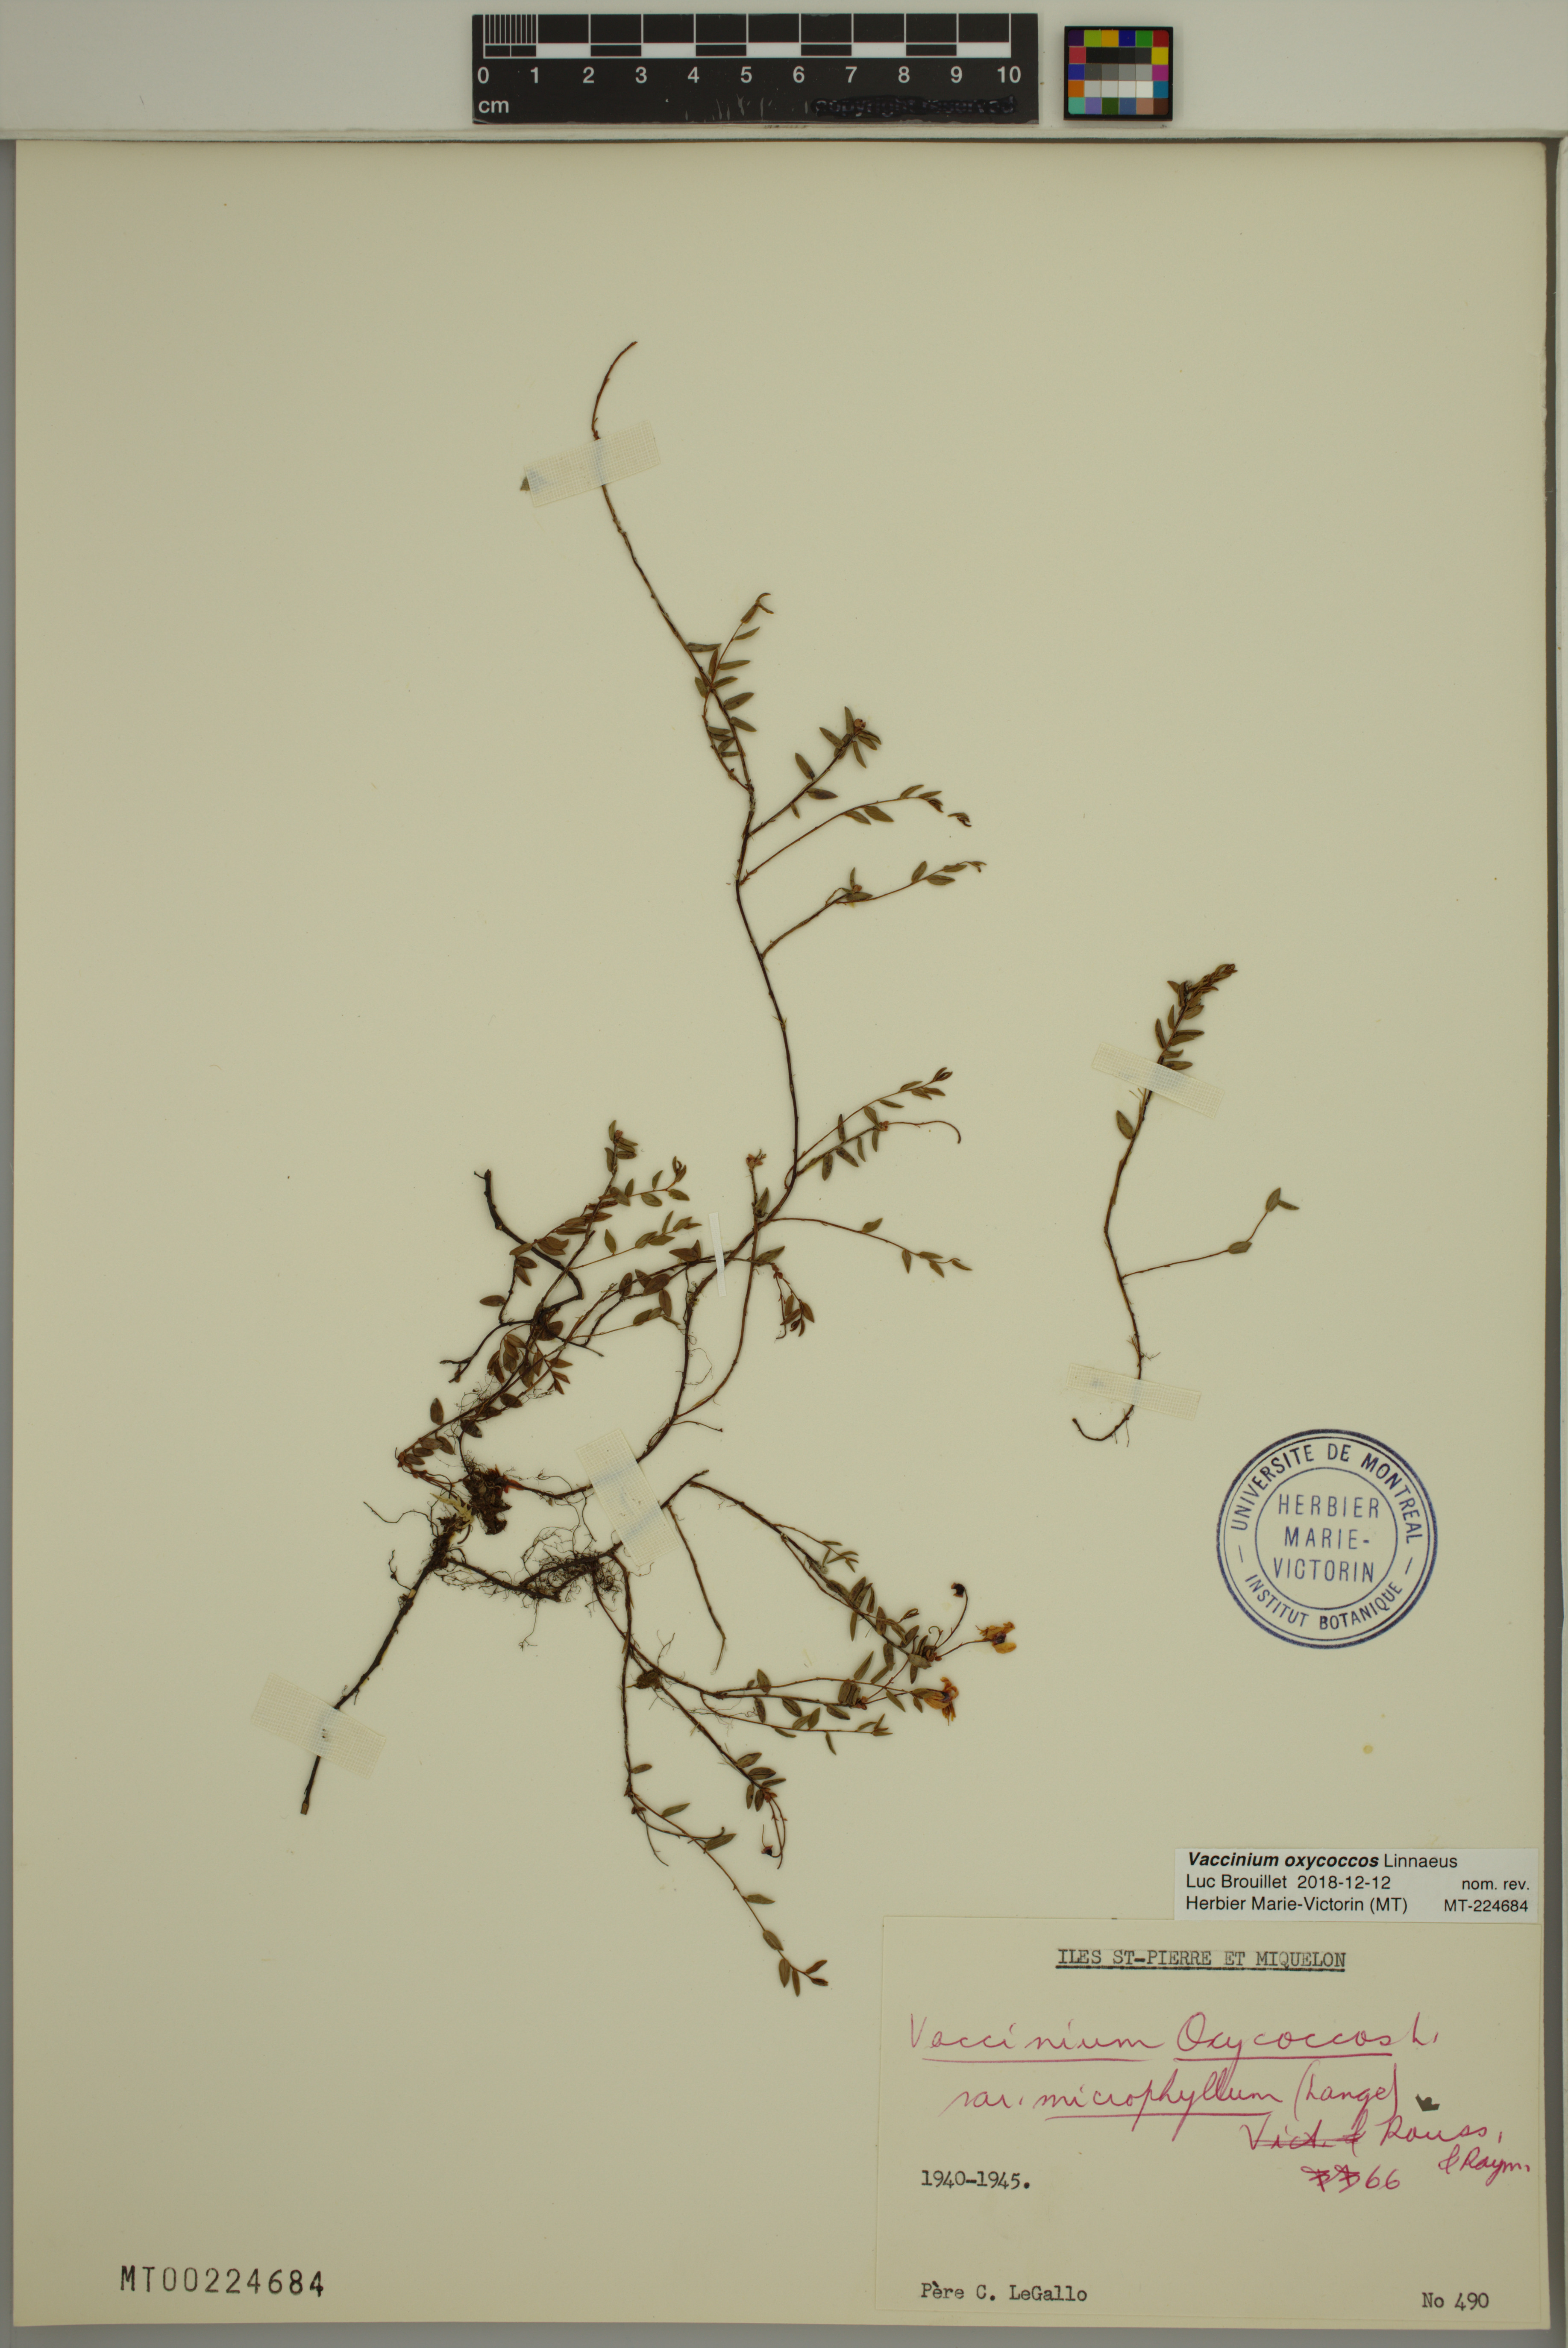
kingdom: Plantae
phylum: Tracheophyta
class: Magnoliopsida
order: Ericales
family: Ericaceae
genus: Vaccinium
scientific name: Vaccinium oxycoccos
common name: Cranberry
